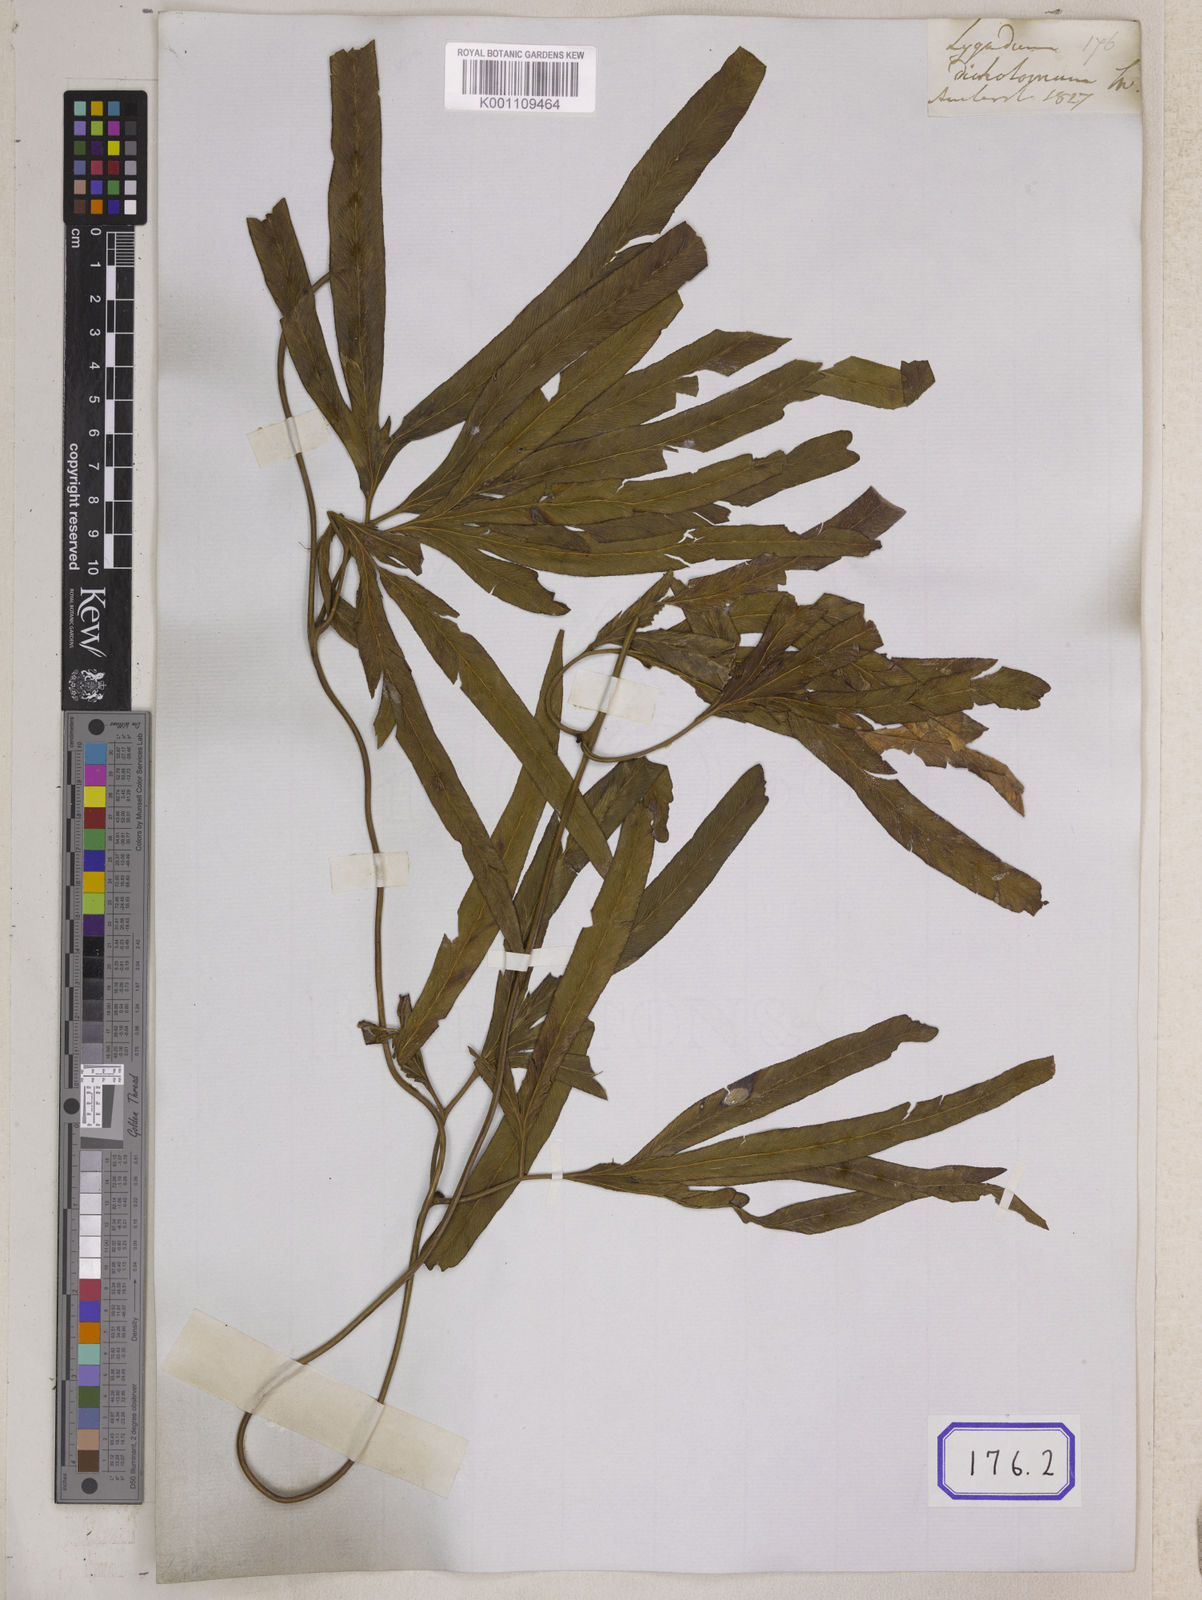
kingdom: Plantae
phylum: Tracheophyta
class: Polypodiopsida
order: Schizaeales
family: Lygodiaceae
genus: Lygodium
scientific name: Lygodium circinnatum
